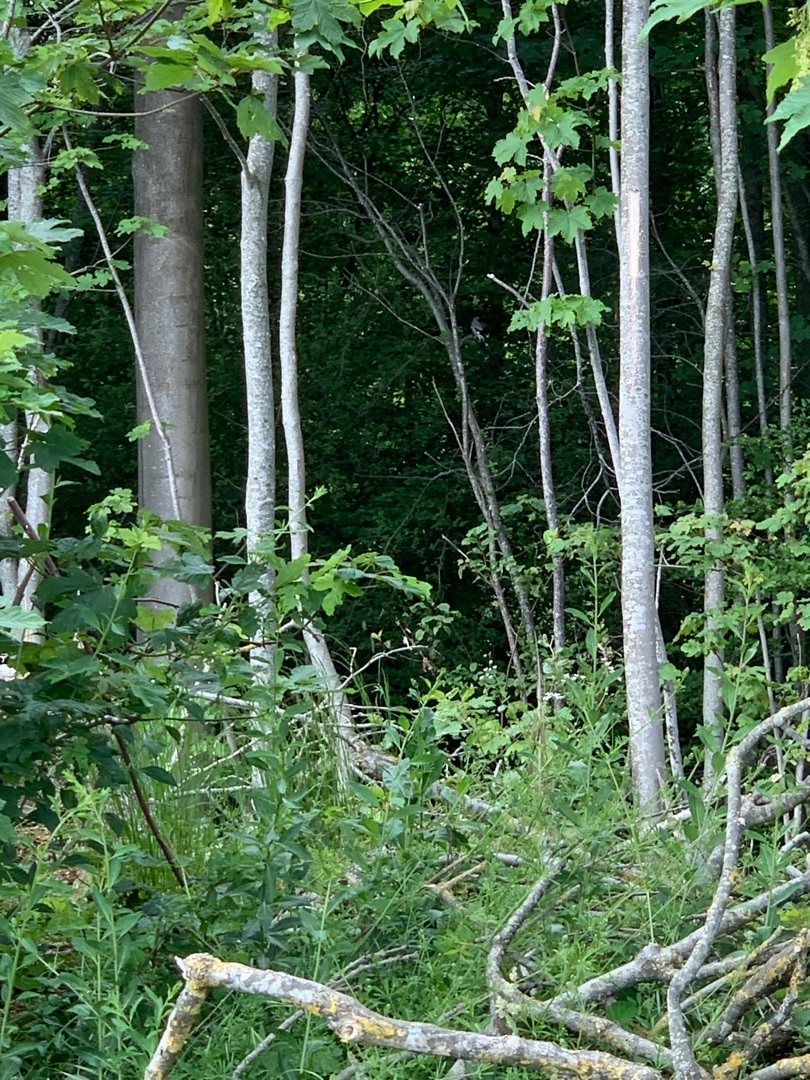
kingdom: Animalia
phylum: Chordata
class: Aves
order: Passeriformes
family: Corvidae
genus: Garrulus
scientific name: Garrulus glandarius
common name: Skovskade
